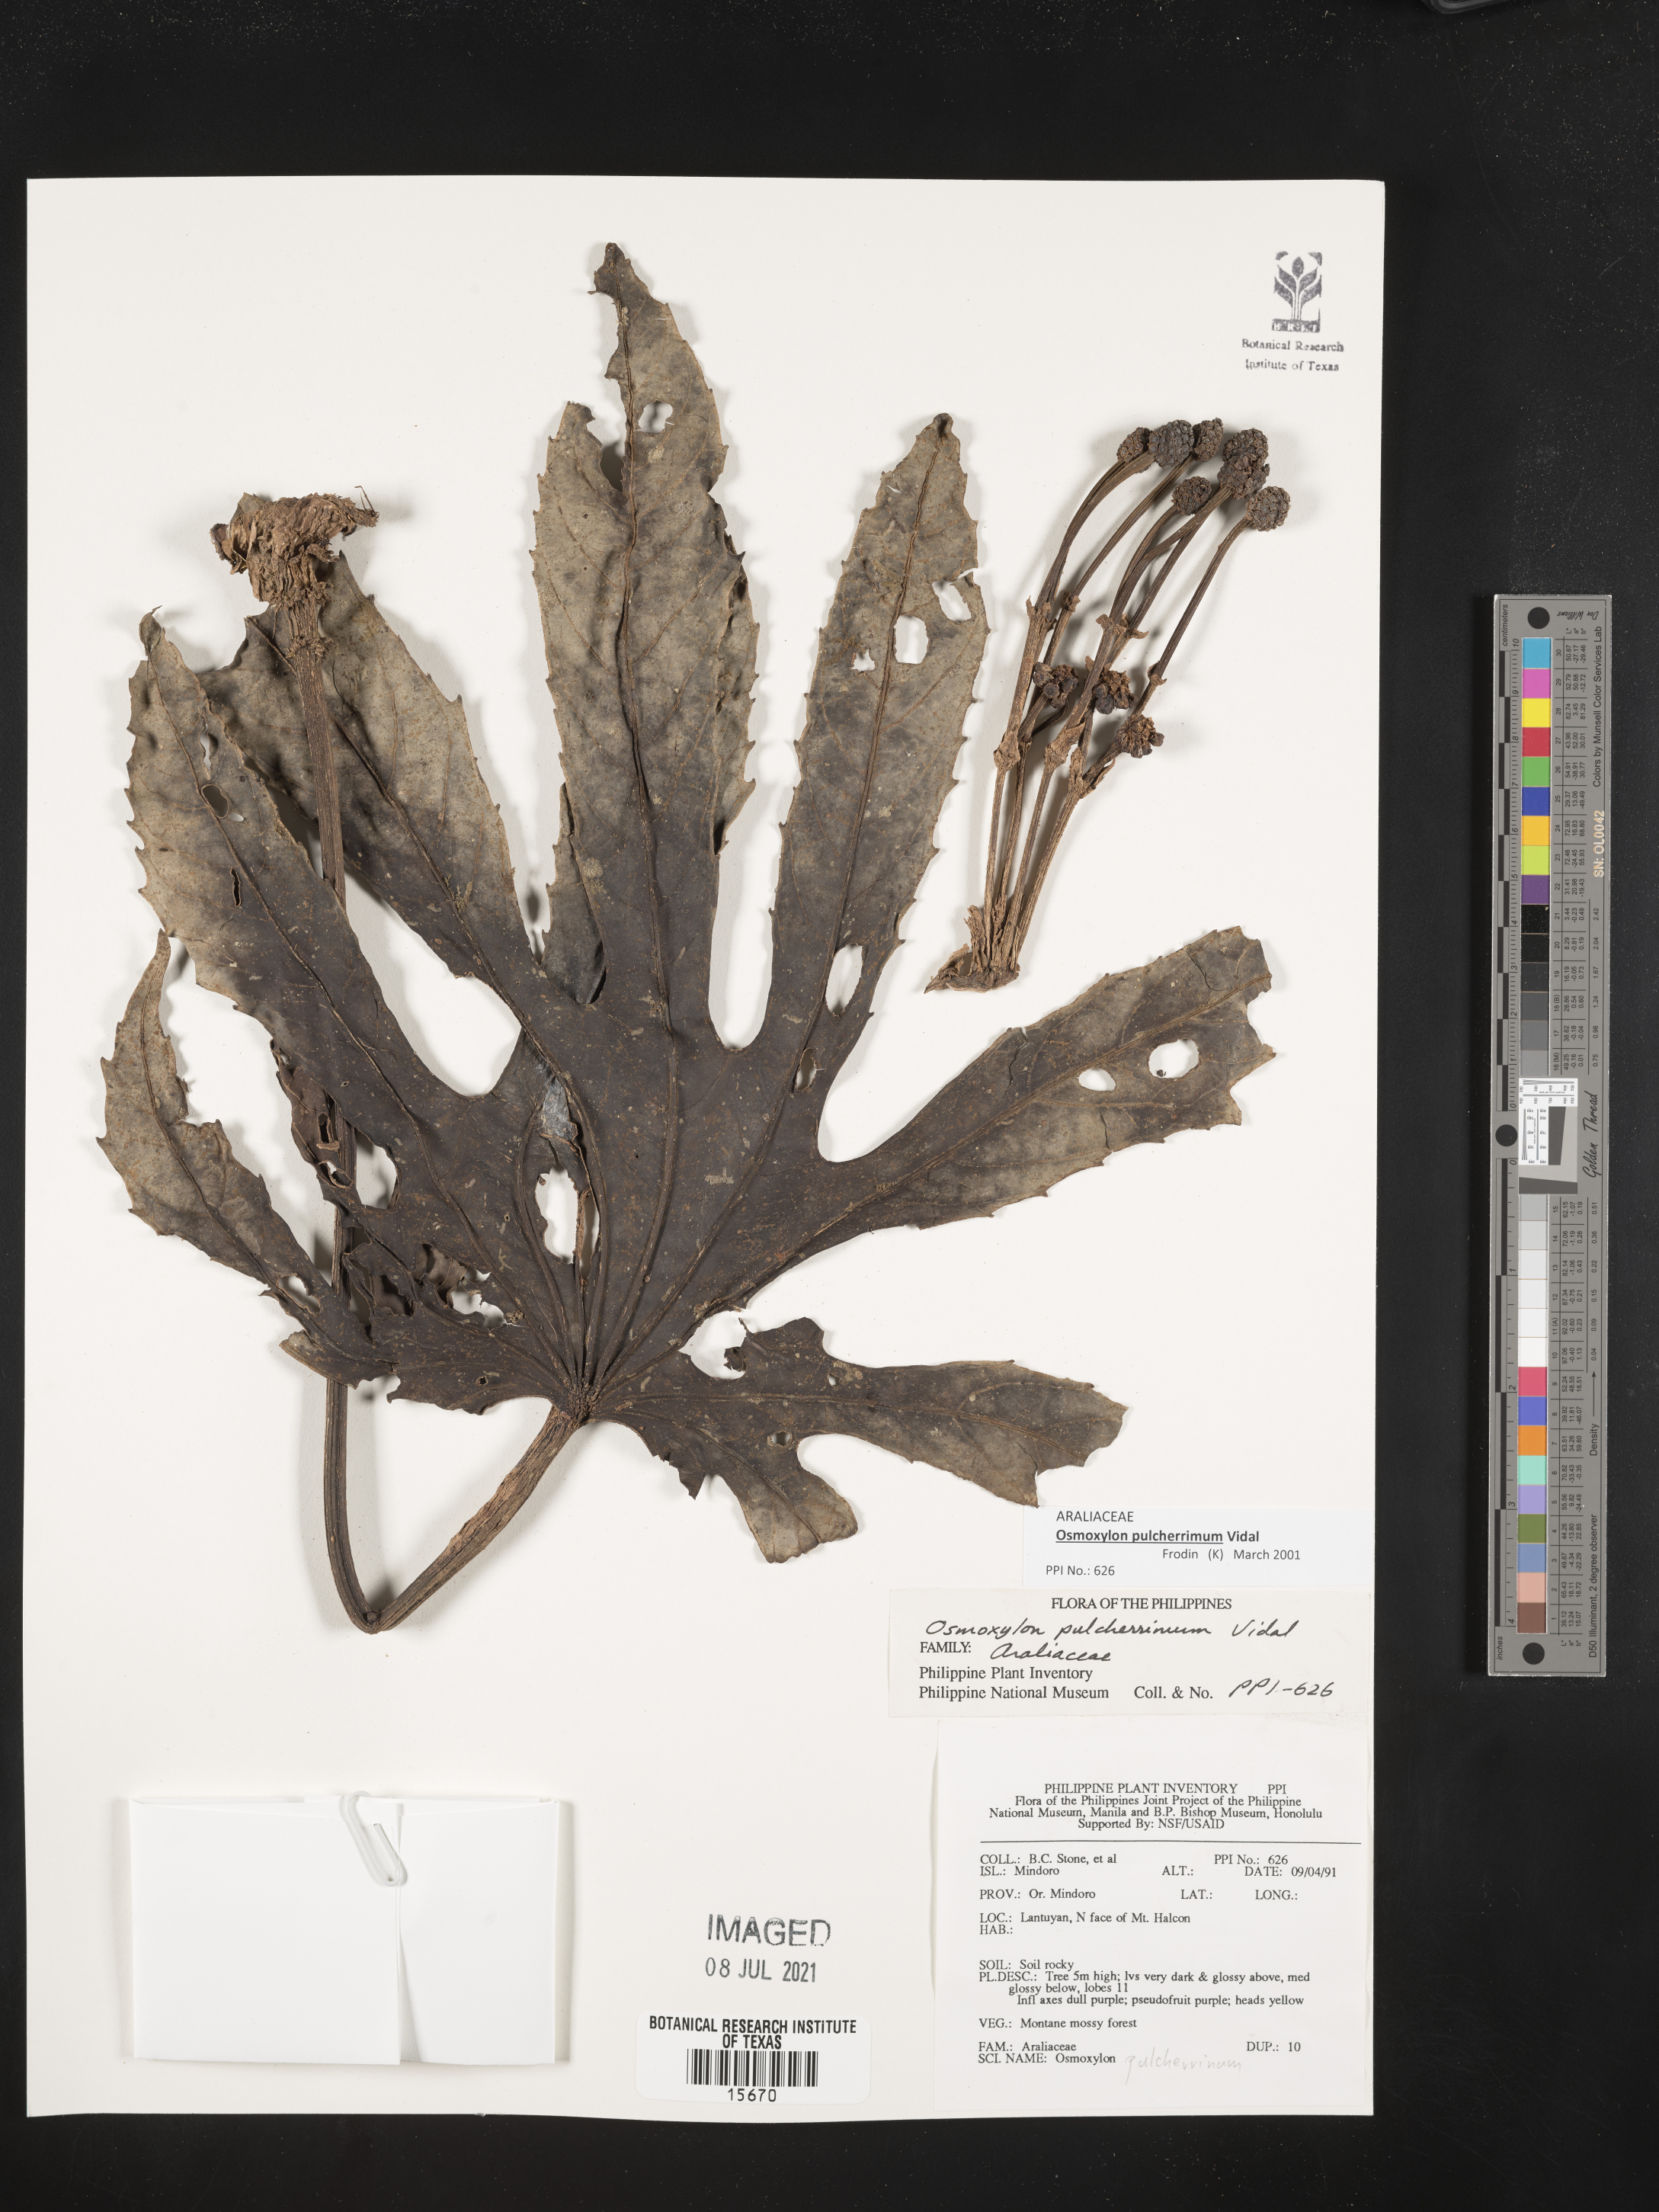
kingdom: Plantae
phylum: Tracheophyta
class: Magnoliopsida
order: Apiales
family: Araliaceae
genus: Osmoxylon
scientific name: Osmoxylon pulcherrimum
